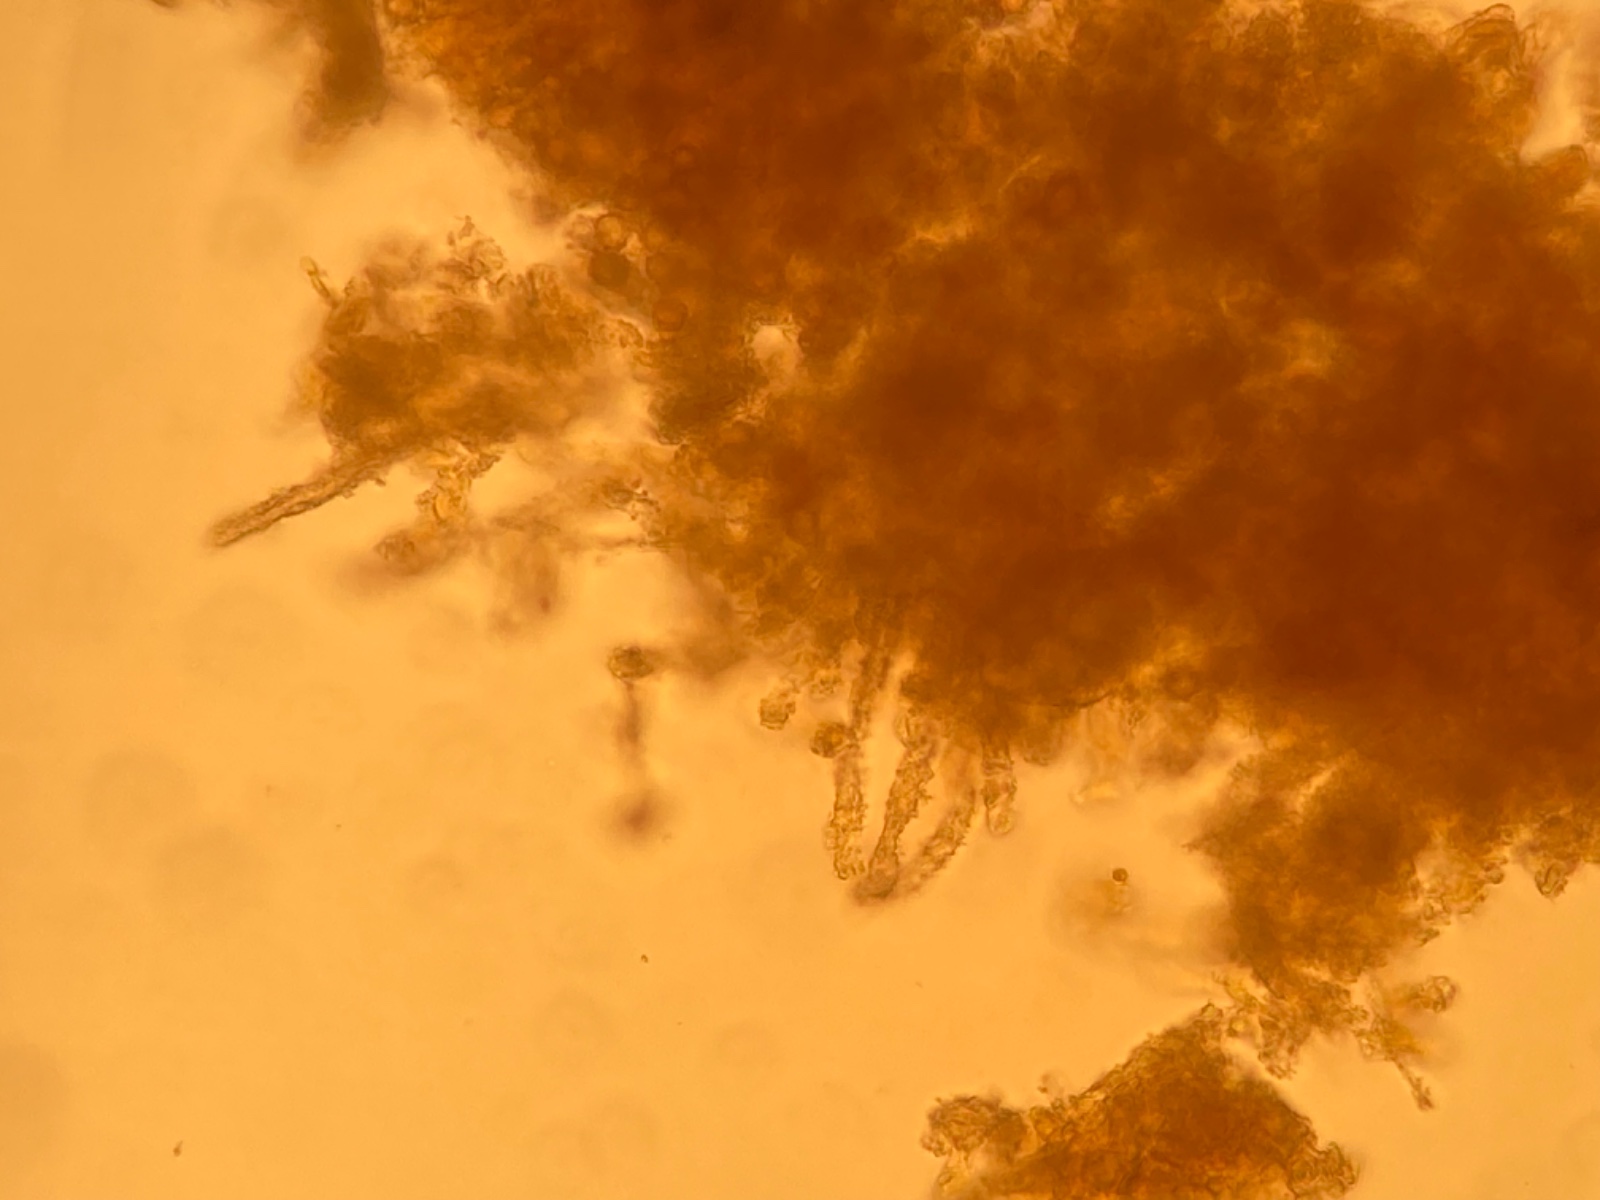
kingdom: Fungi
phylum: Basidiomycota
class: Agaricomycetes
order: Thelephorales
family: Thelephoraceae
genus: Tomentella
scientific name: Tomentella
